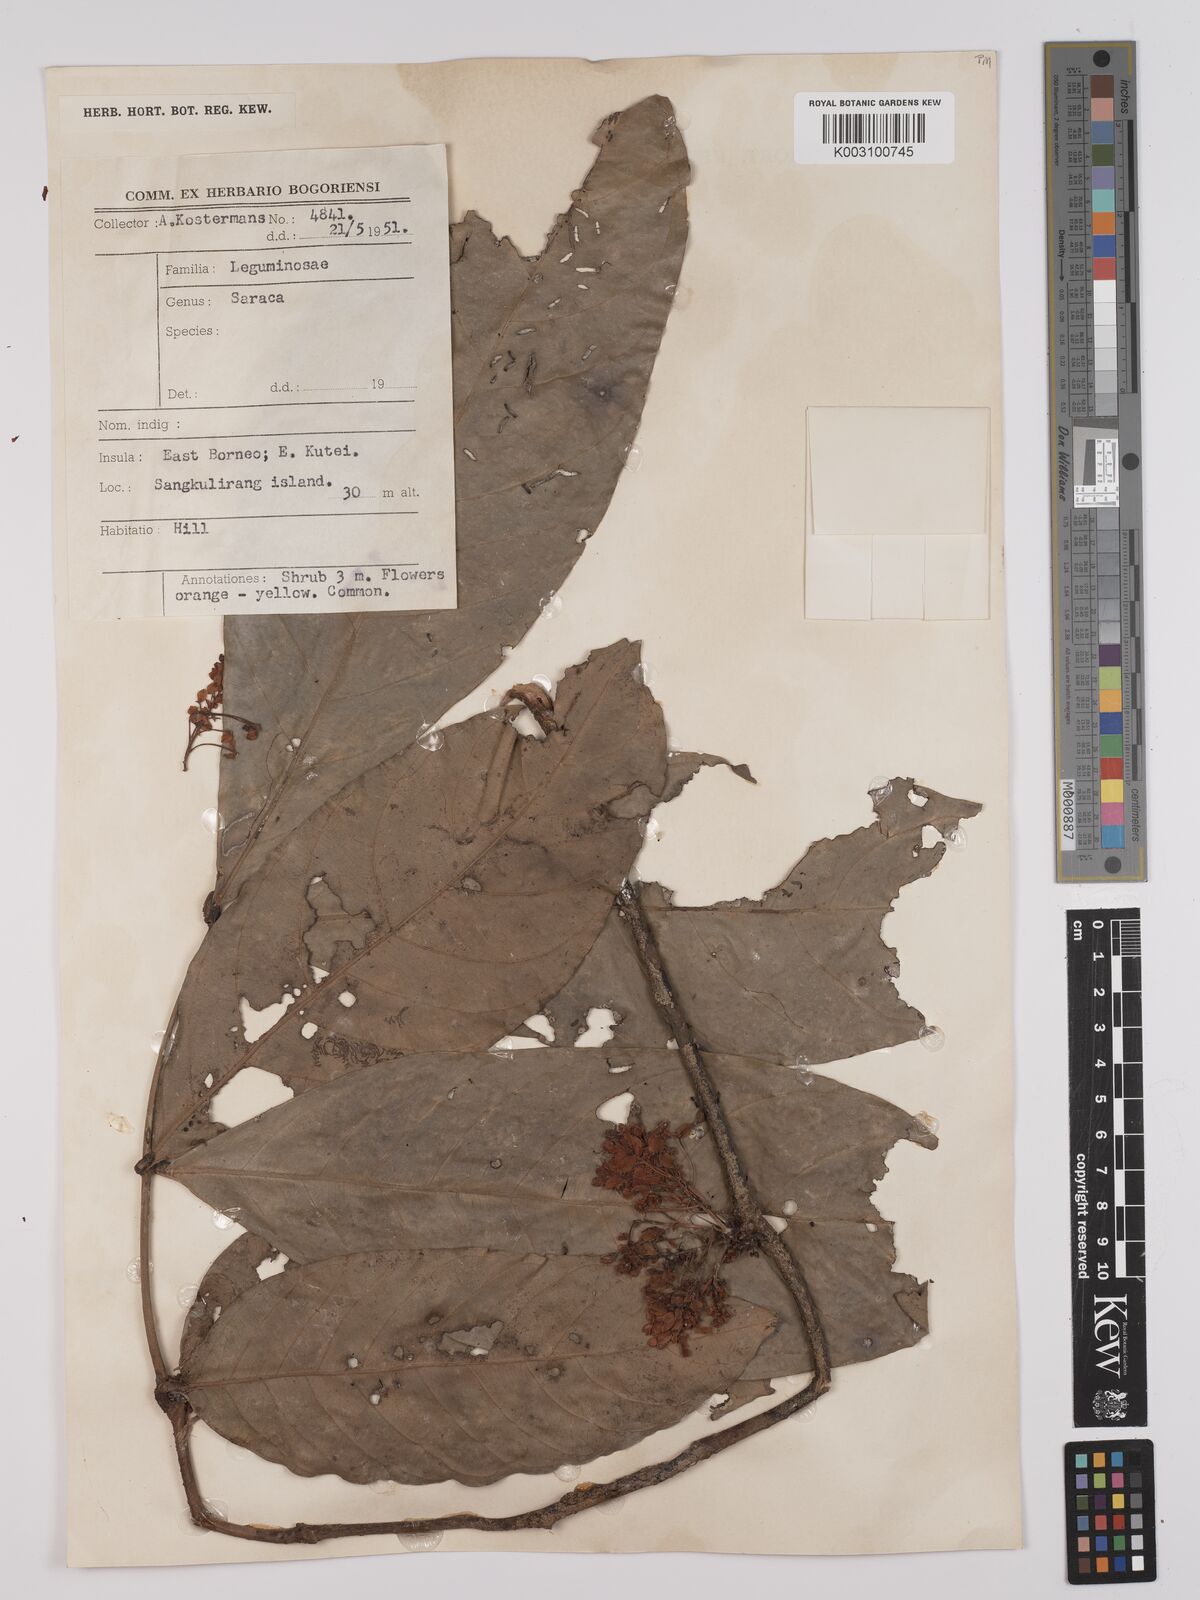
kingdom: Plantae
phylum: Tracheophyta
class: Magnoliopsida
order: Fabales
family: Fabaceae
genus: Saraca
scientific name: Saraca declinata
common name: Red saraca
